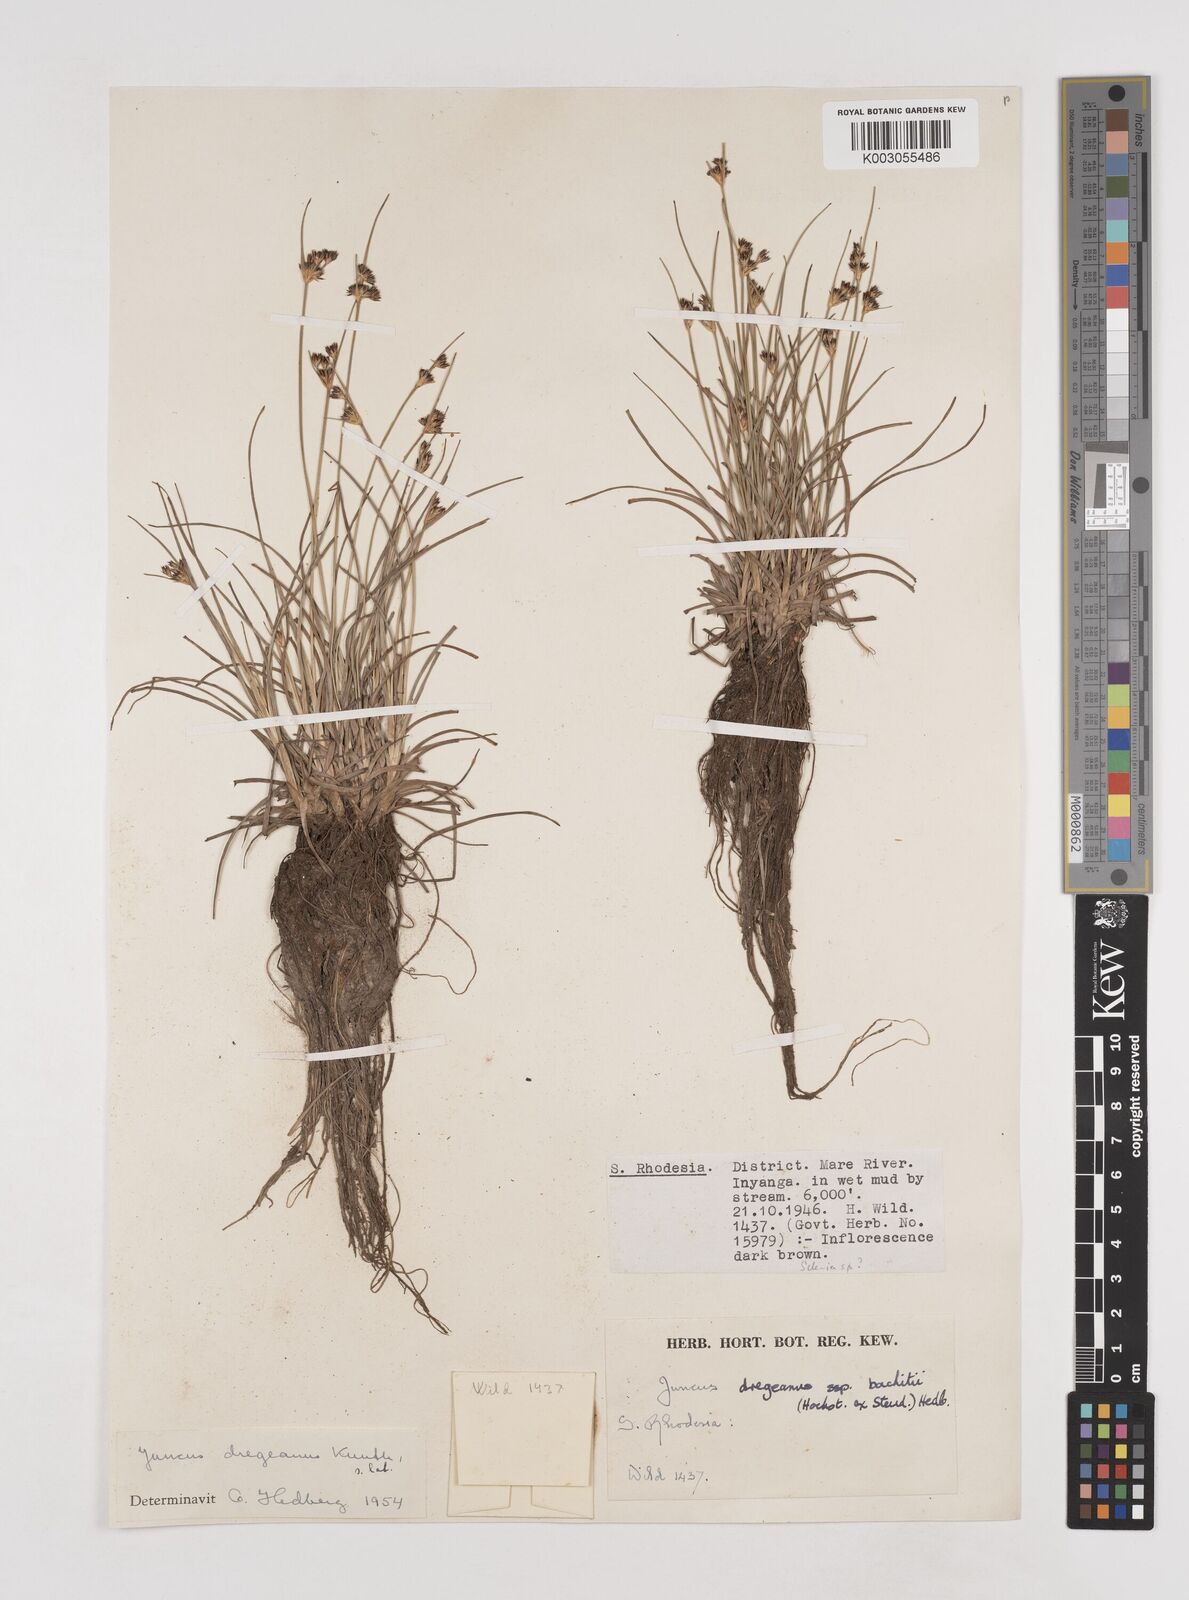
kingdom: Plantae
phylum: Tracheophyta
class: Liliopsida
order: Poales
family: Juncaceae
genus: Juncus
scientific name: Juncus dregeanus
